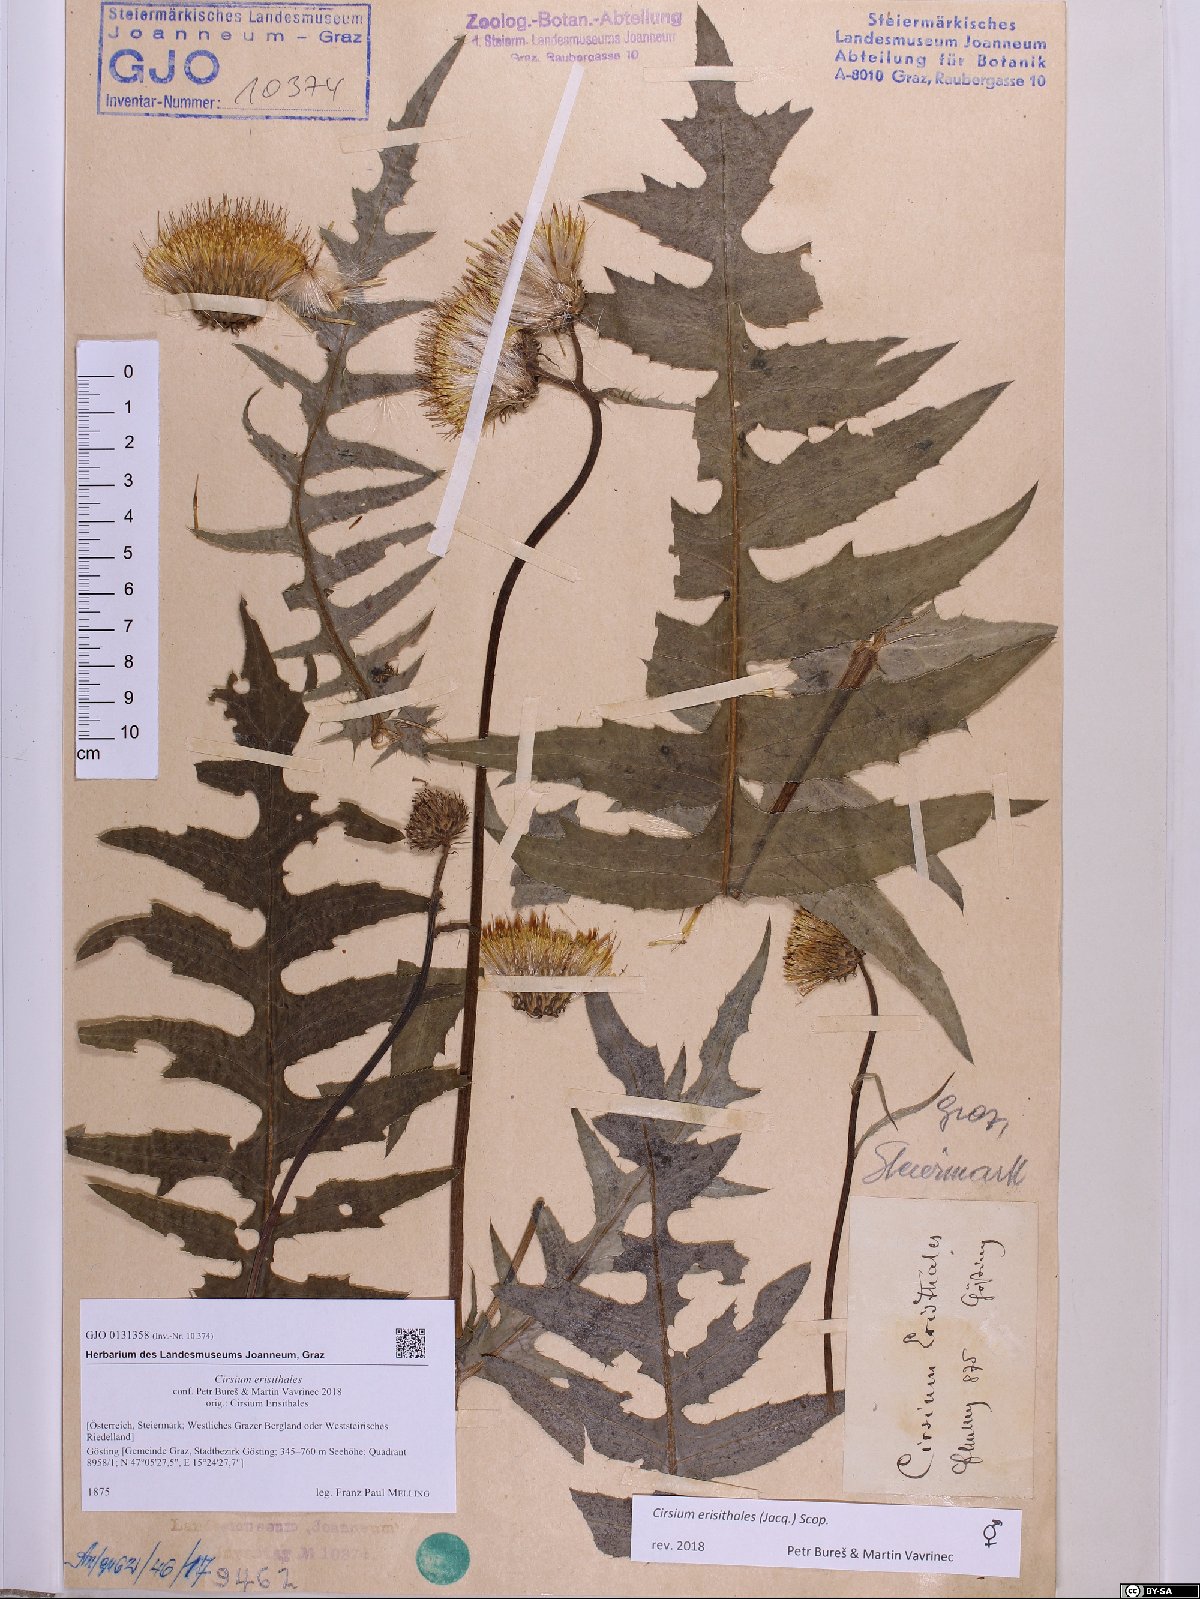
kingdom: Plantae
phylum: Tracheophyta
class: Magnoliopsida
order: Asterales
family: Asteraceae
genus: Cirsium
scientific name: Cirsium erisithales
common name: Yellow thistle
